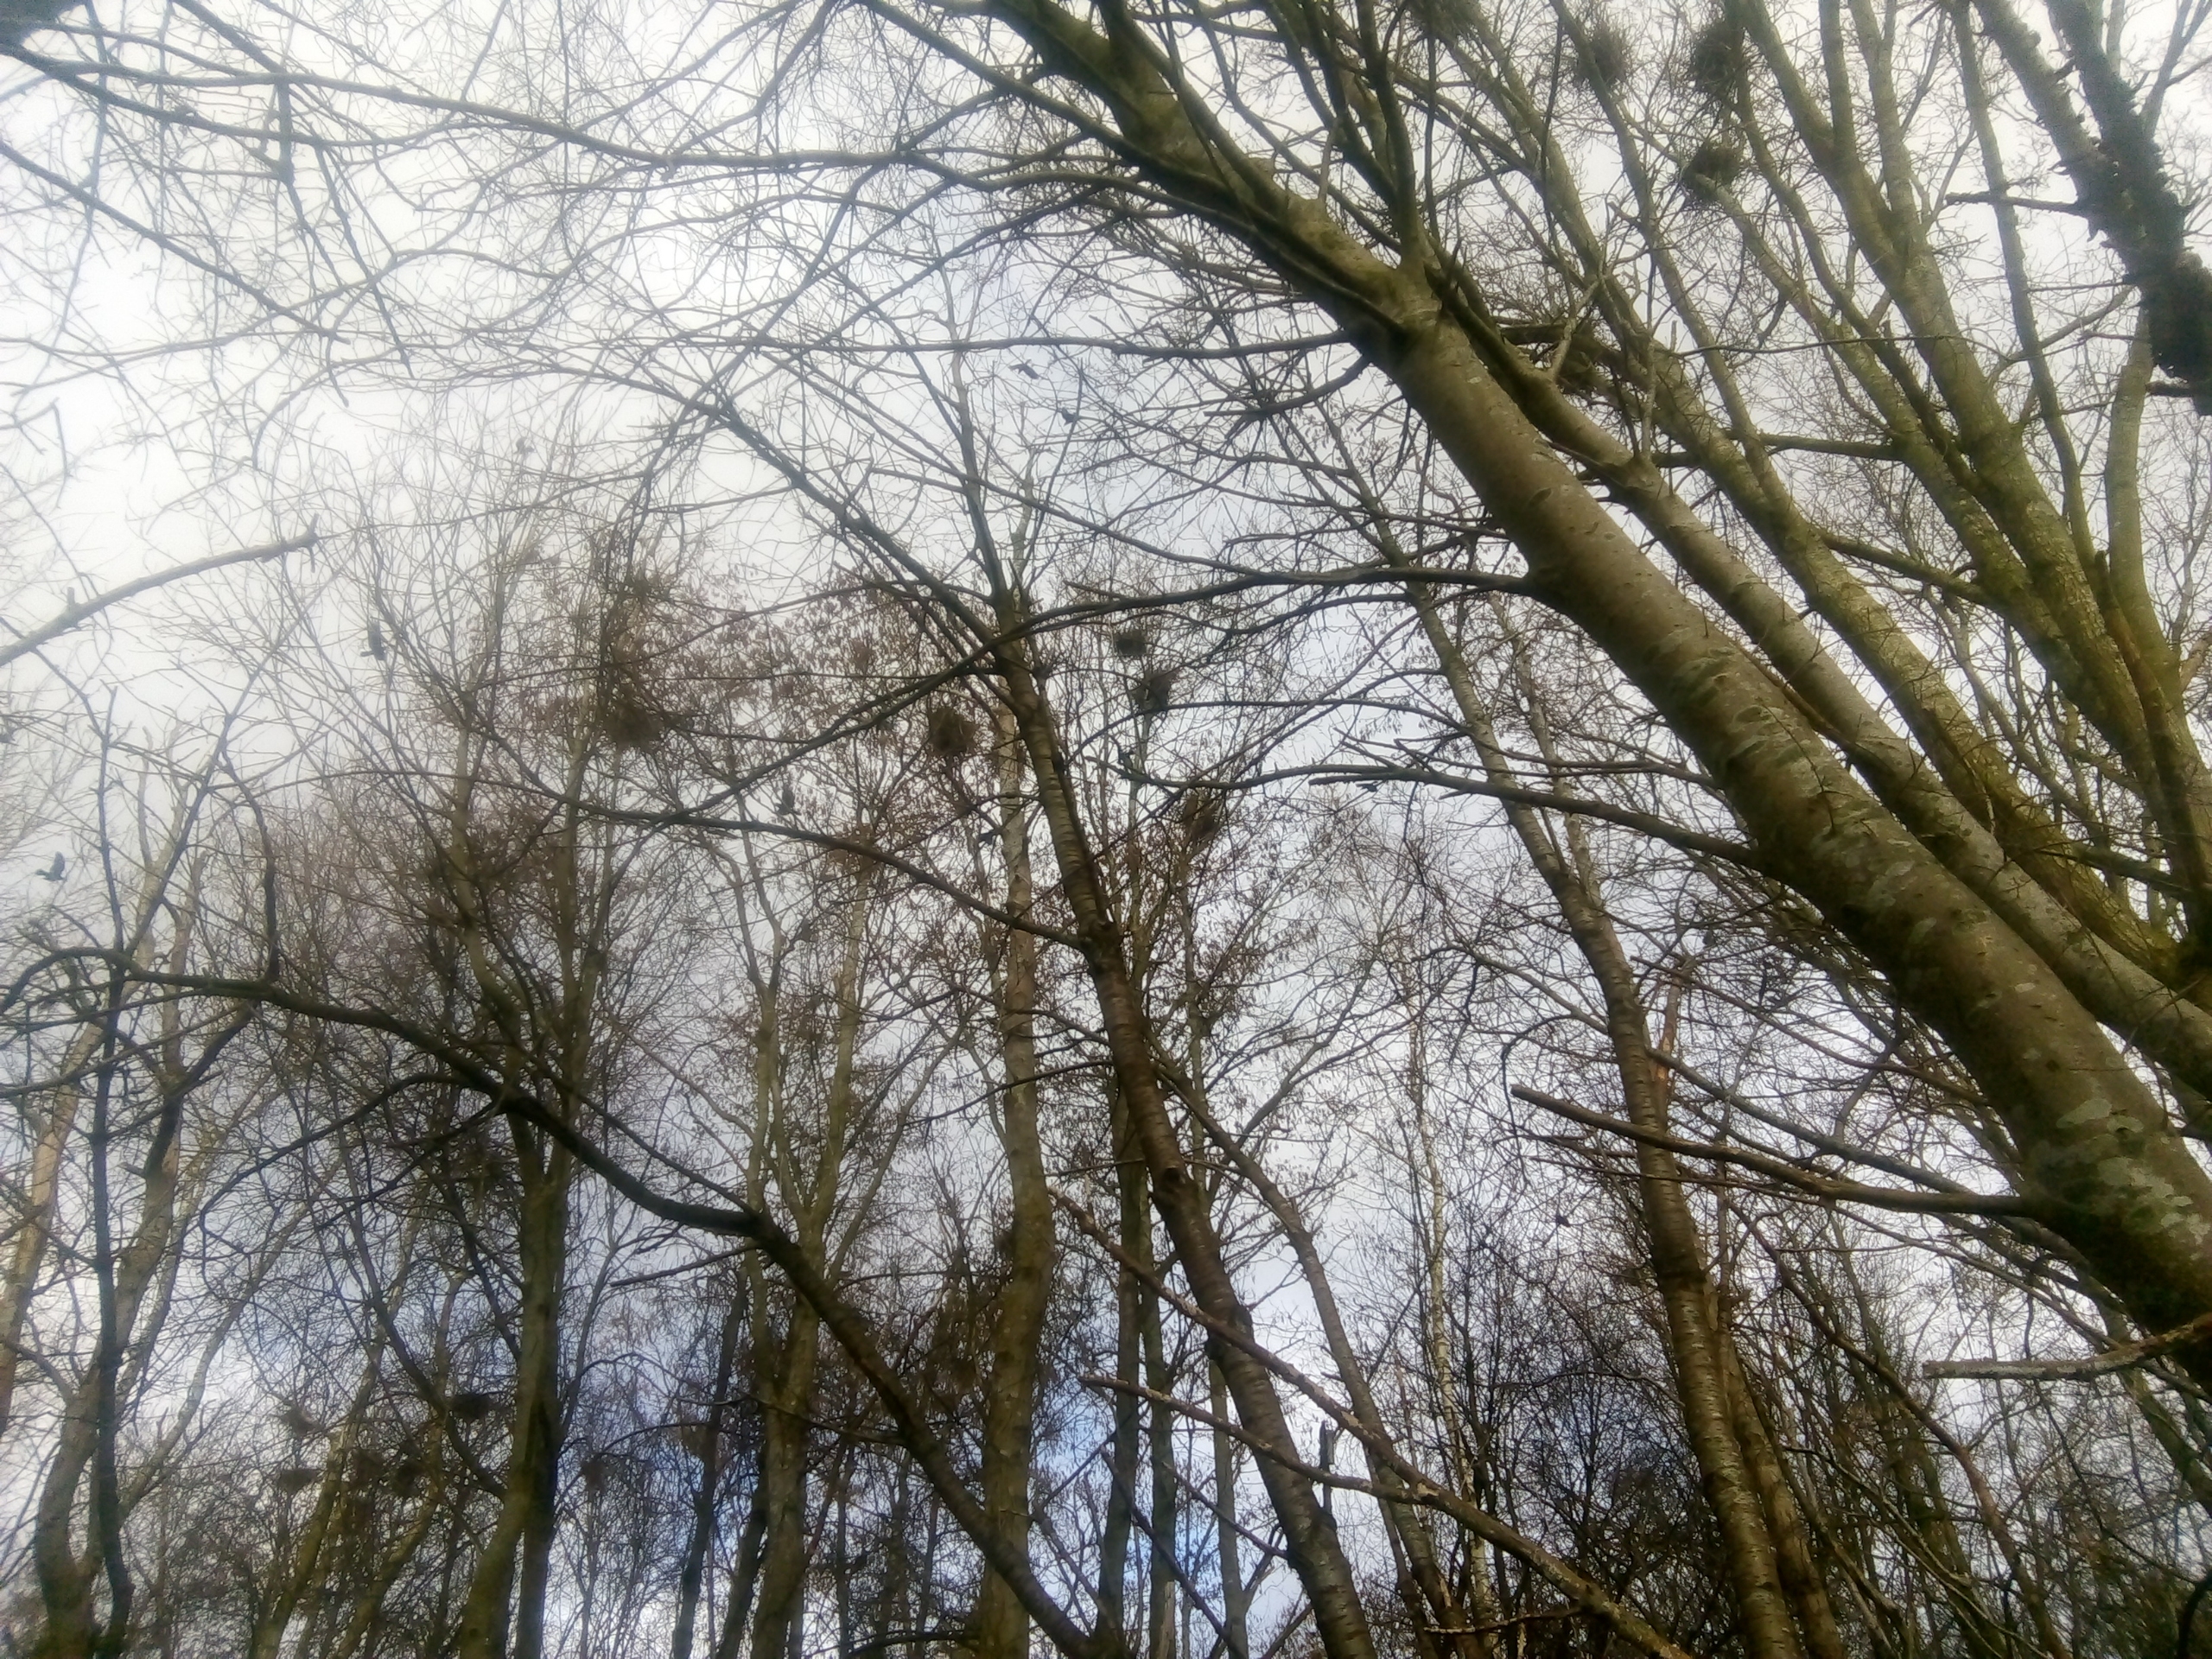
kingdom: Animalia
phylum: Chordata
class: Aves
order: Passeriformes
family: Corvidae
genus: Corvus
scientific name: Corvus frugilegus
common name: Råge
